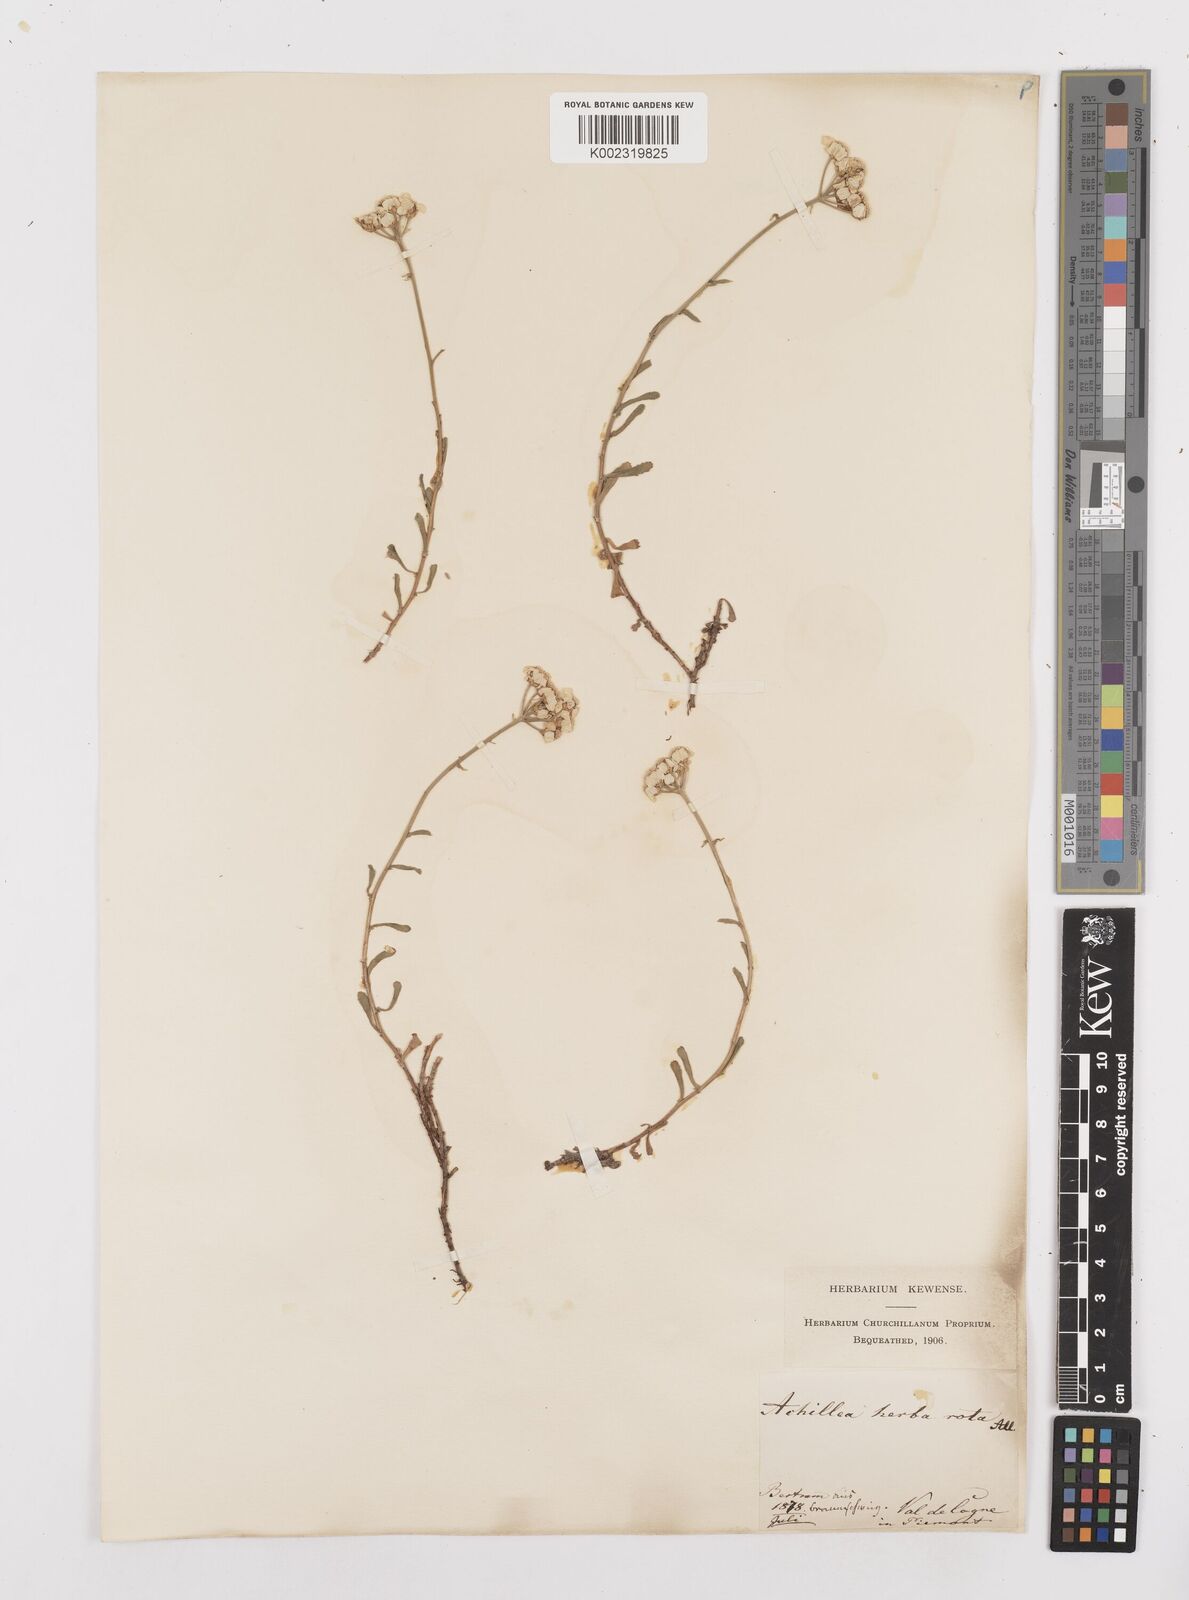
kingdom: Plantae
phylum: Tracheophyta
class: Magnoliopsida
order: Asterales
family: Asteraceae
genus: Achillea
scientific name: Achillea erba-rotta
